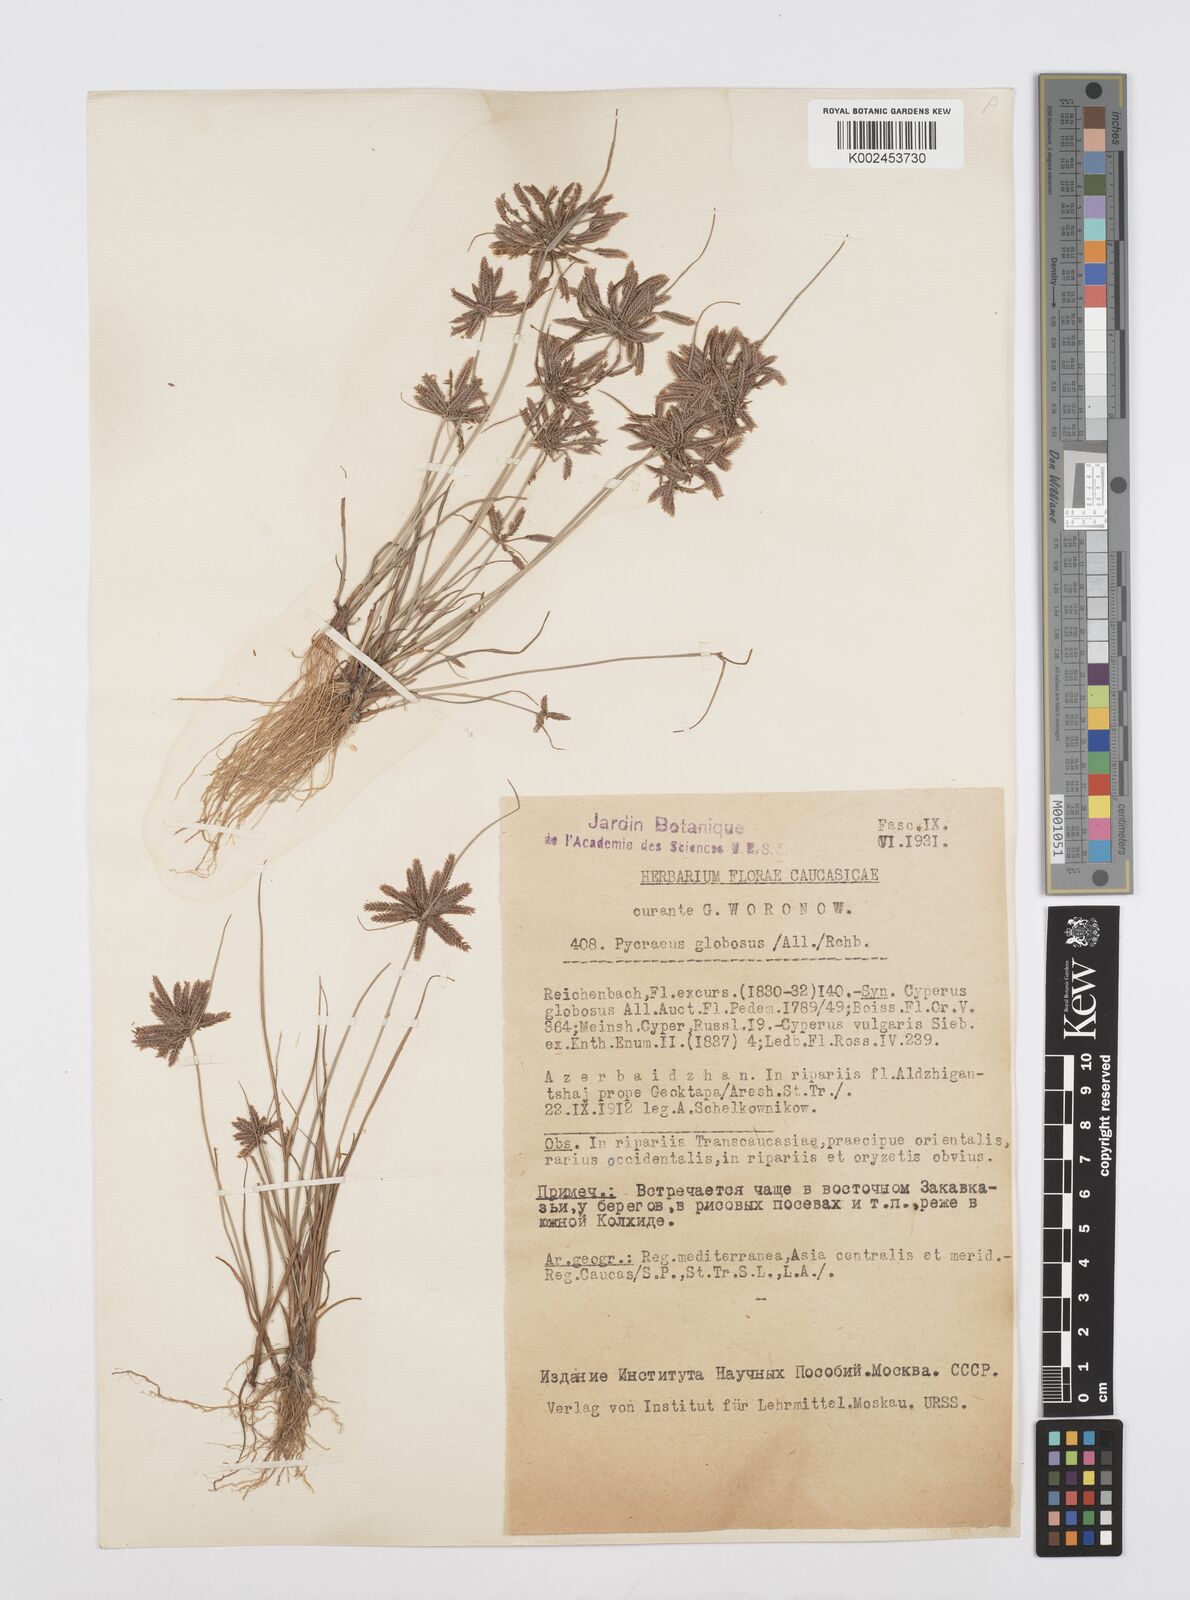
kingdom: Plantae
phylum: Tracheophyta
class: Liliopsida
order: Poales
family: Cyperaceae
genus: Cyperus
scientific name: Cyperus flavidus
